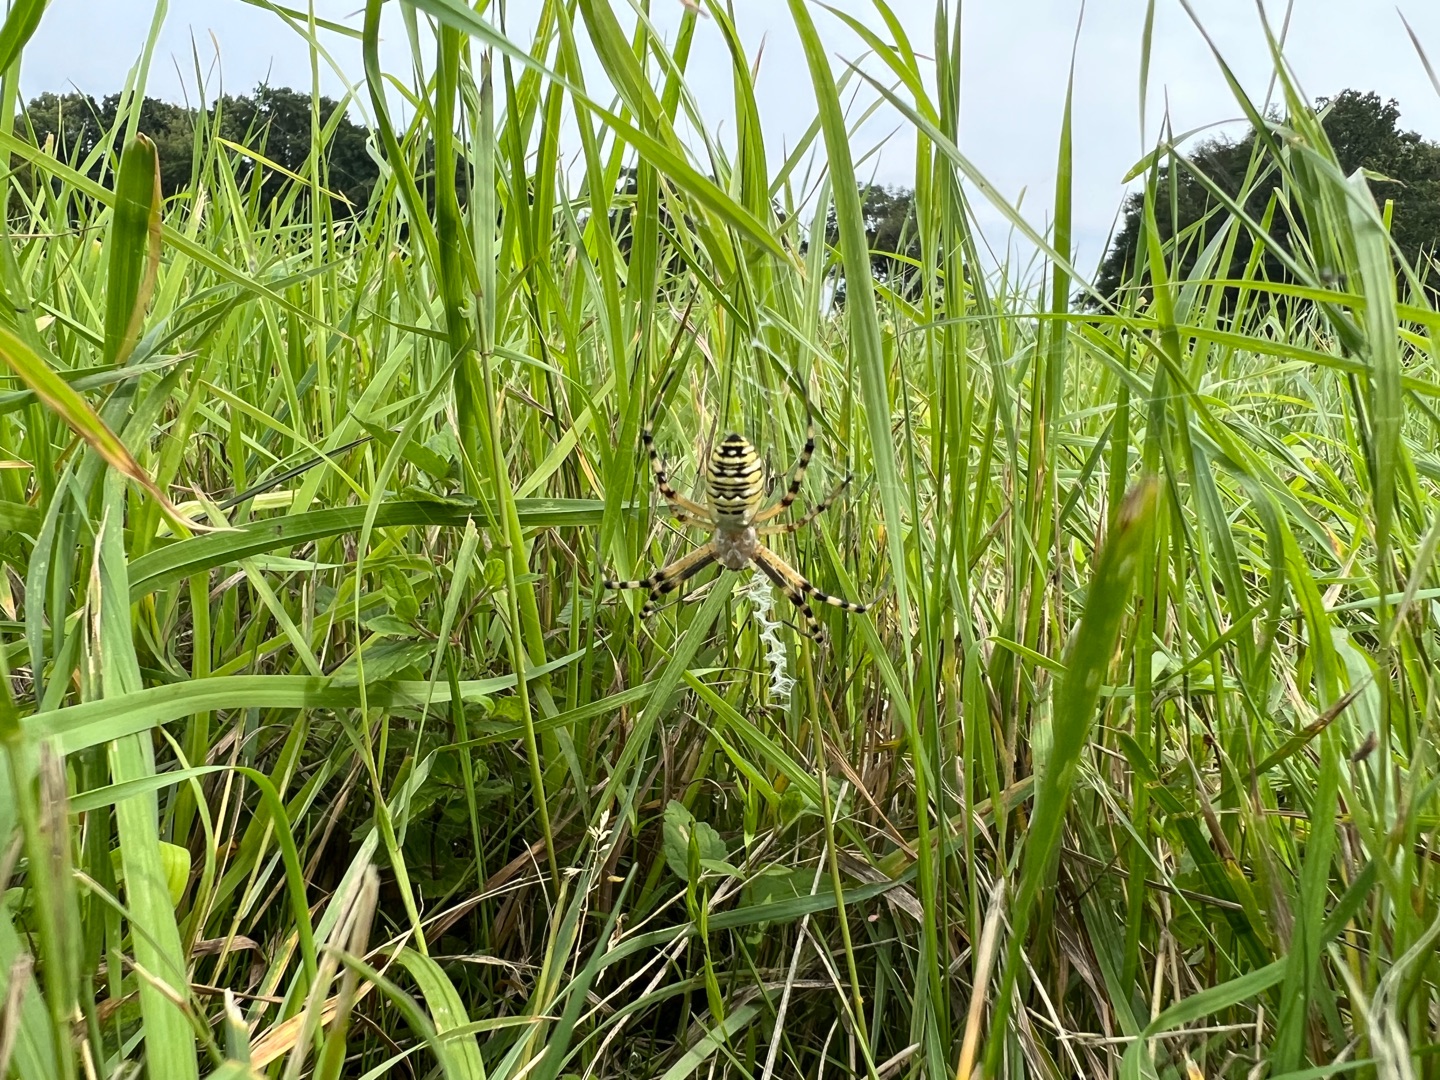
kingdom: Animalia
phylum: Arthropoda
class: Arachnida
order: Araneae
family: Araneidae
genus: Argiope
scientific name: Argiope bruennichi
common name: Hvepseedderkop
